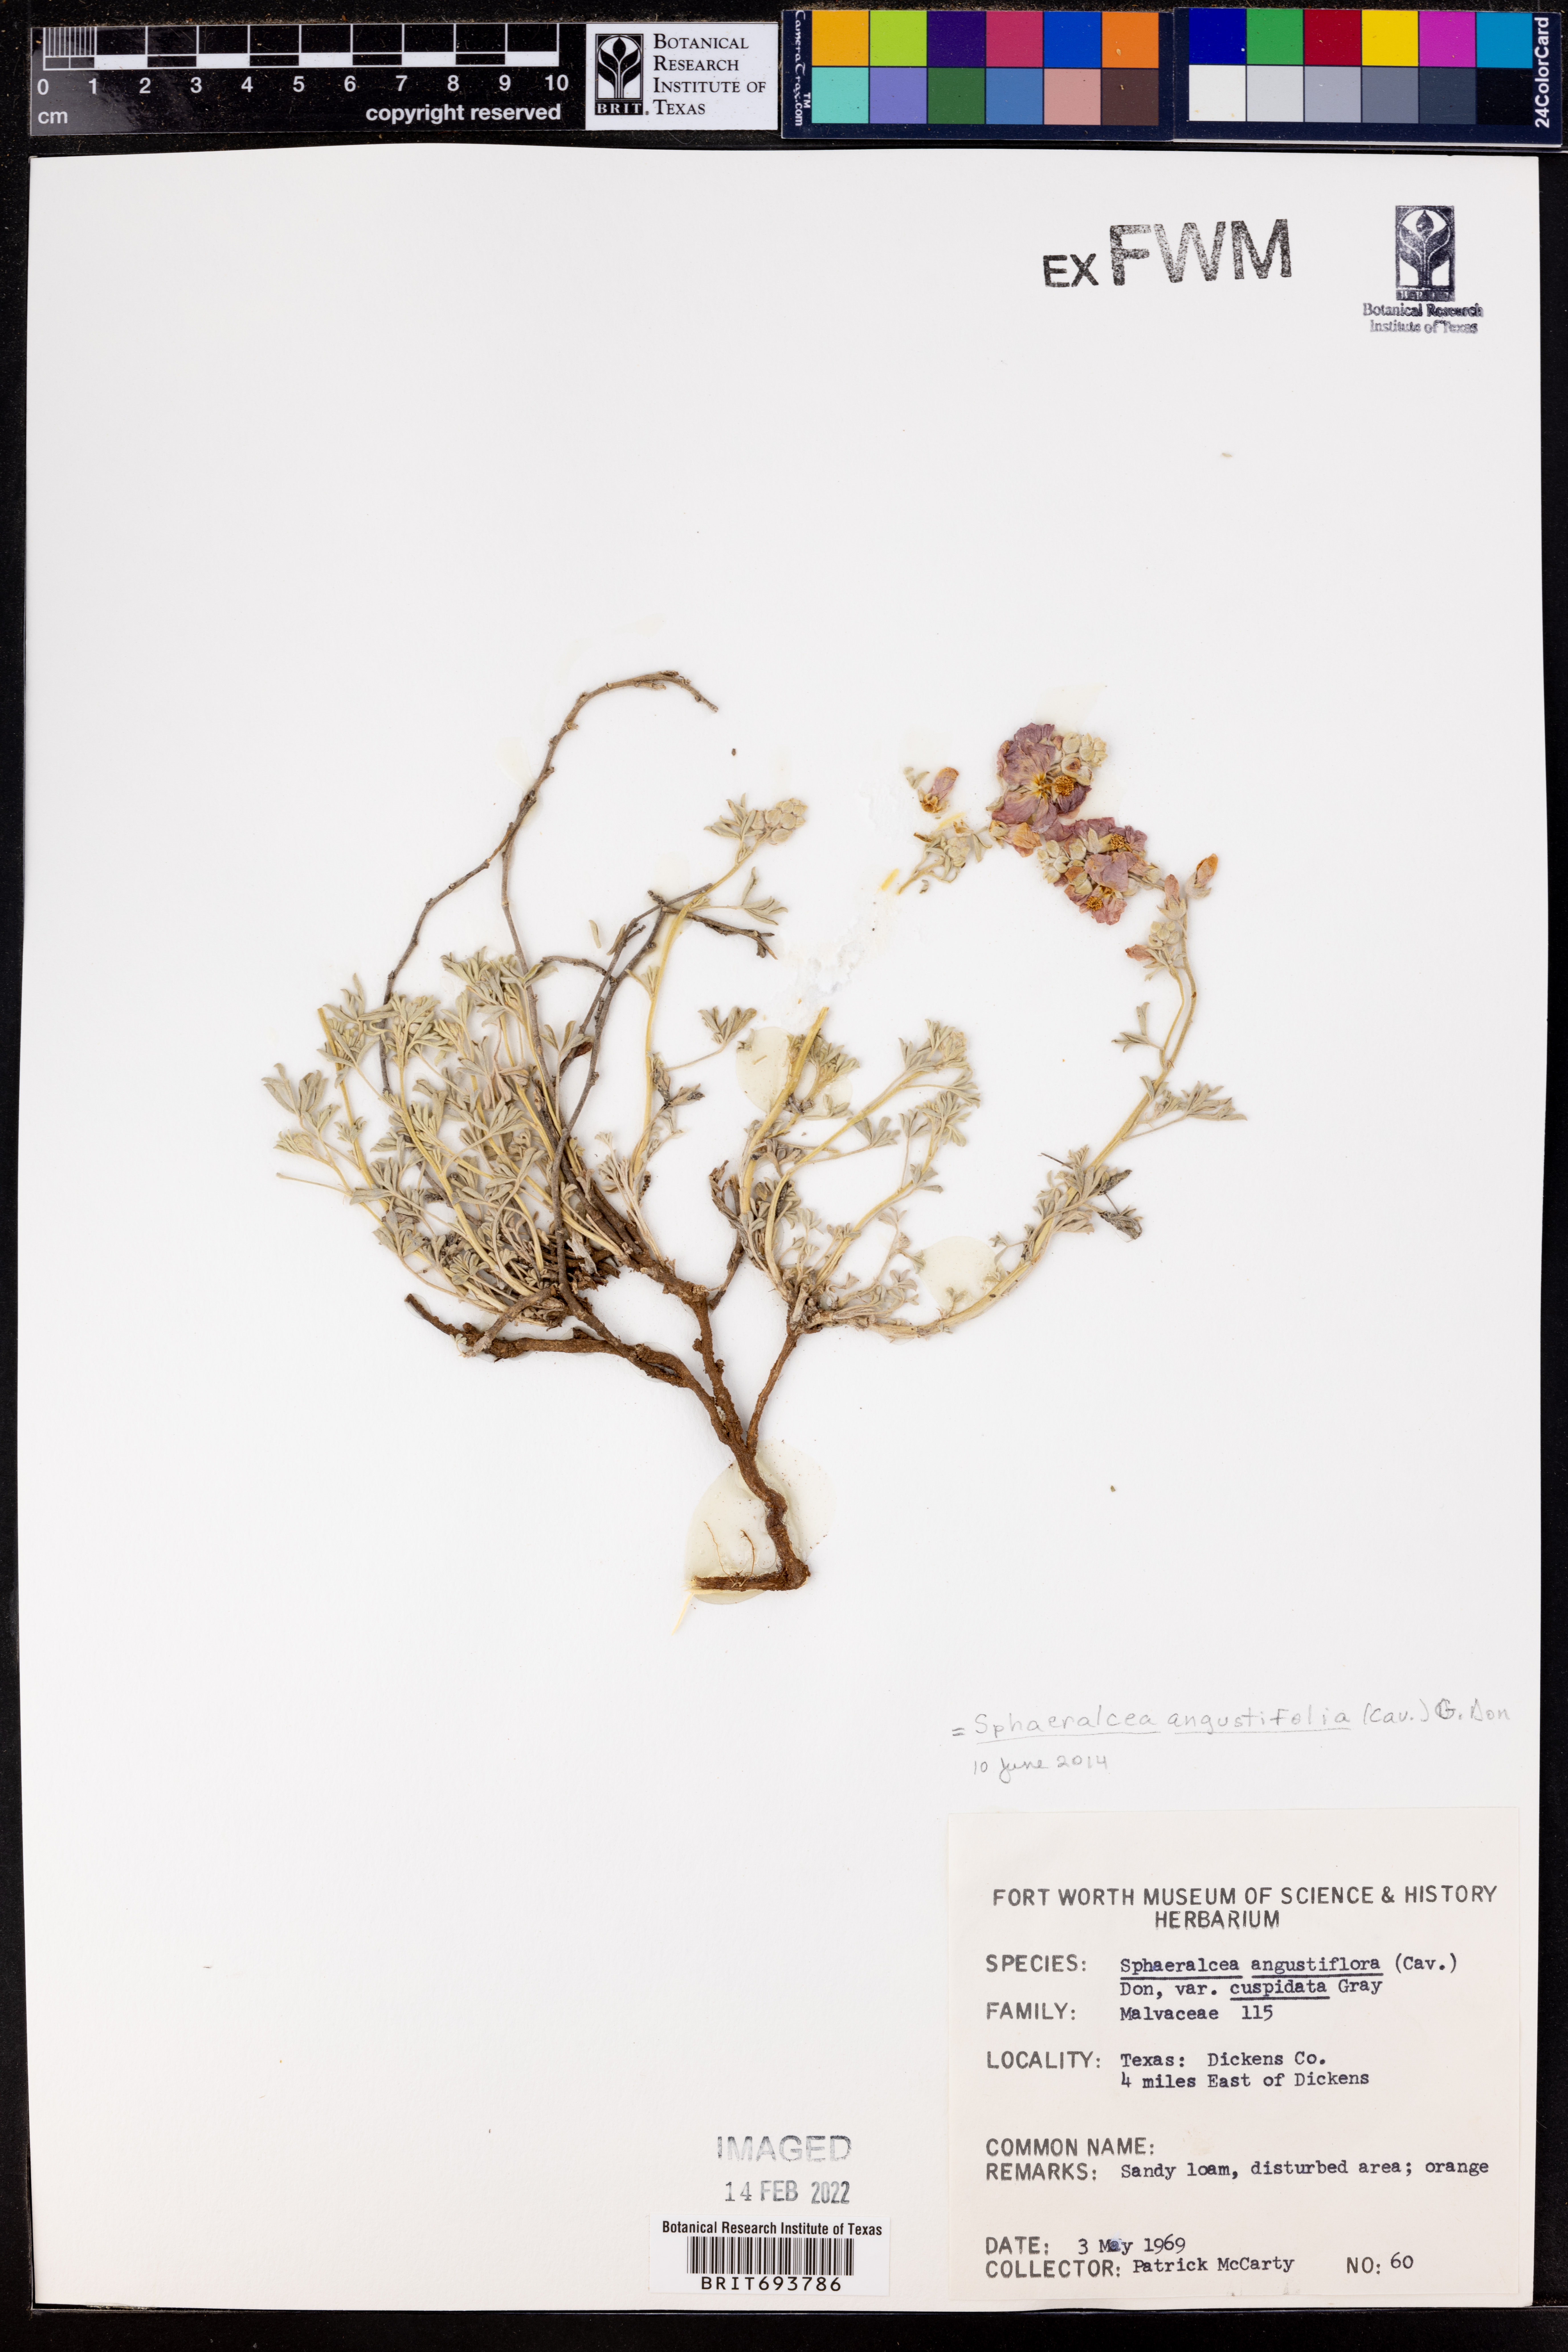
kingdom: Plantae
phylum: Tracheophyta
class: Magnoliopsida
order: Malvales
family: Malvaceae
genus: Sphaeralcea
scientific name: Sphaeralcea angustifolia
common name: Copper globe-mallow
